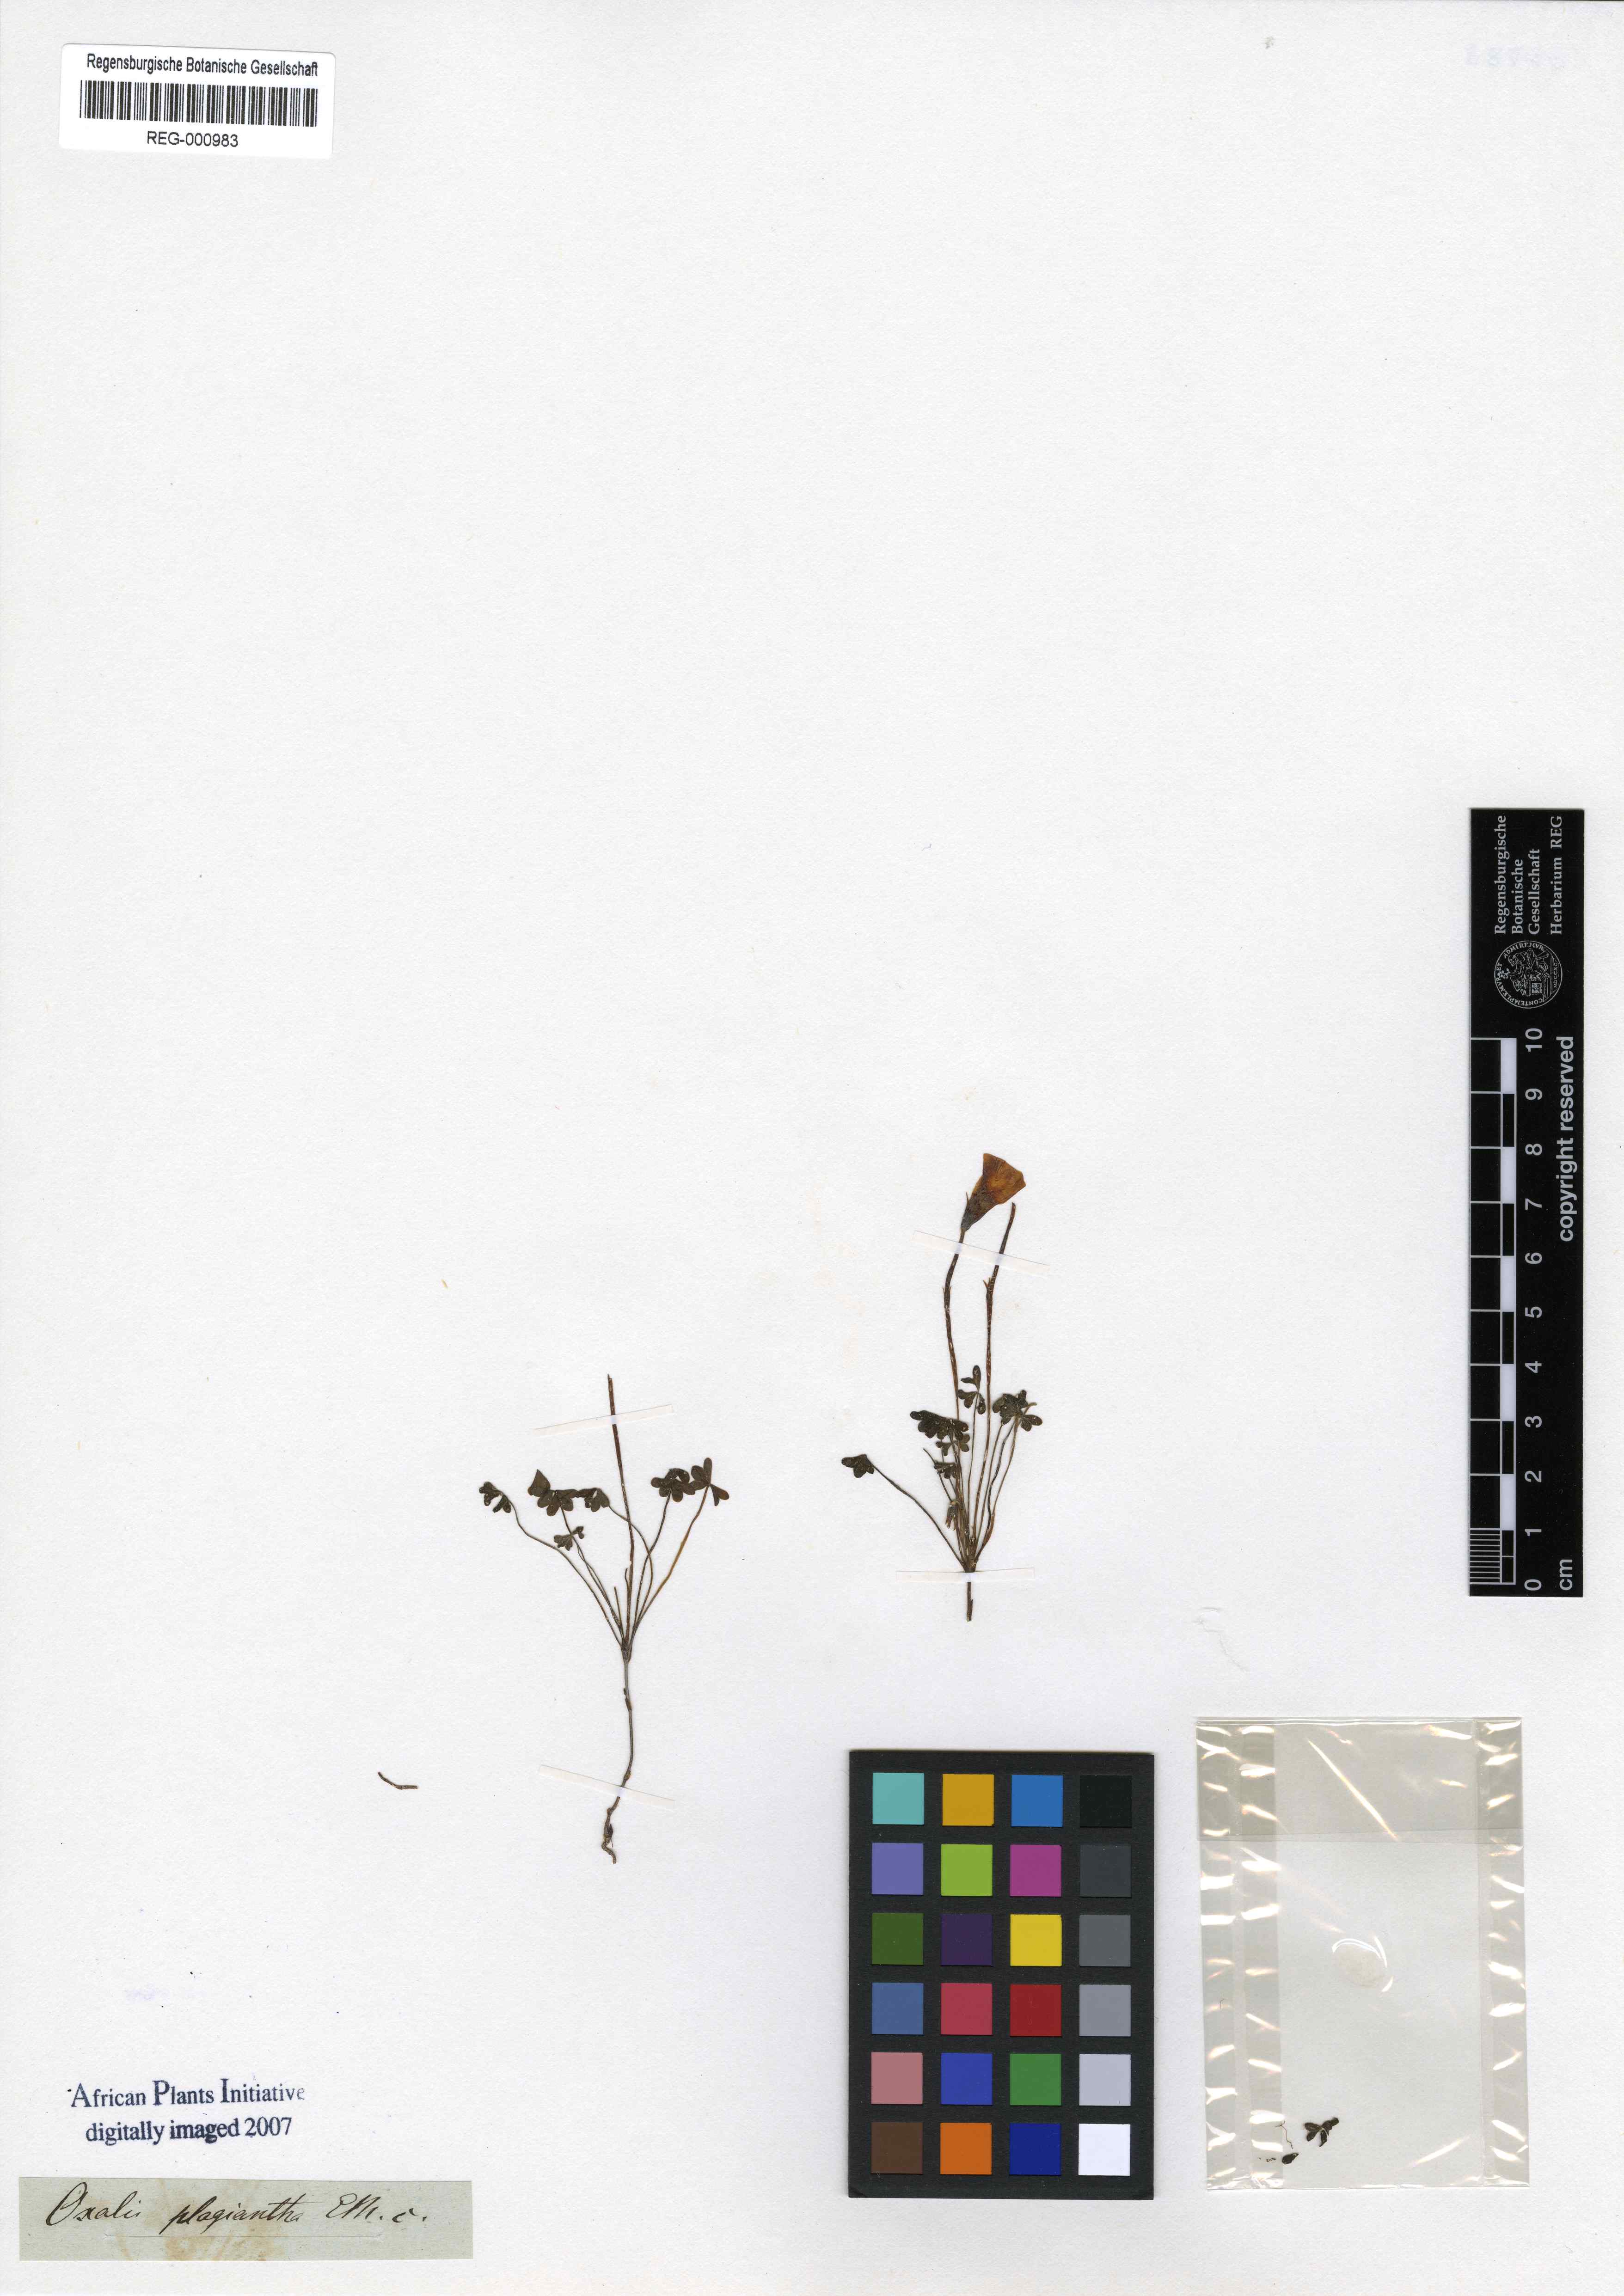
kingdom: Plantae
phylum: Tracheophyta
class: Magnoliopsida
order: Oxalidales
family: Oxalidaceae
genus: Oxalis
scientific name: Oxalis obtusa
